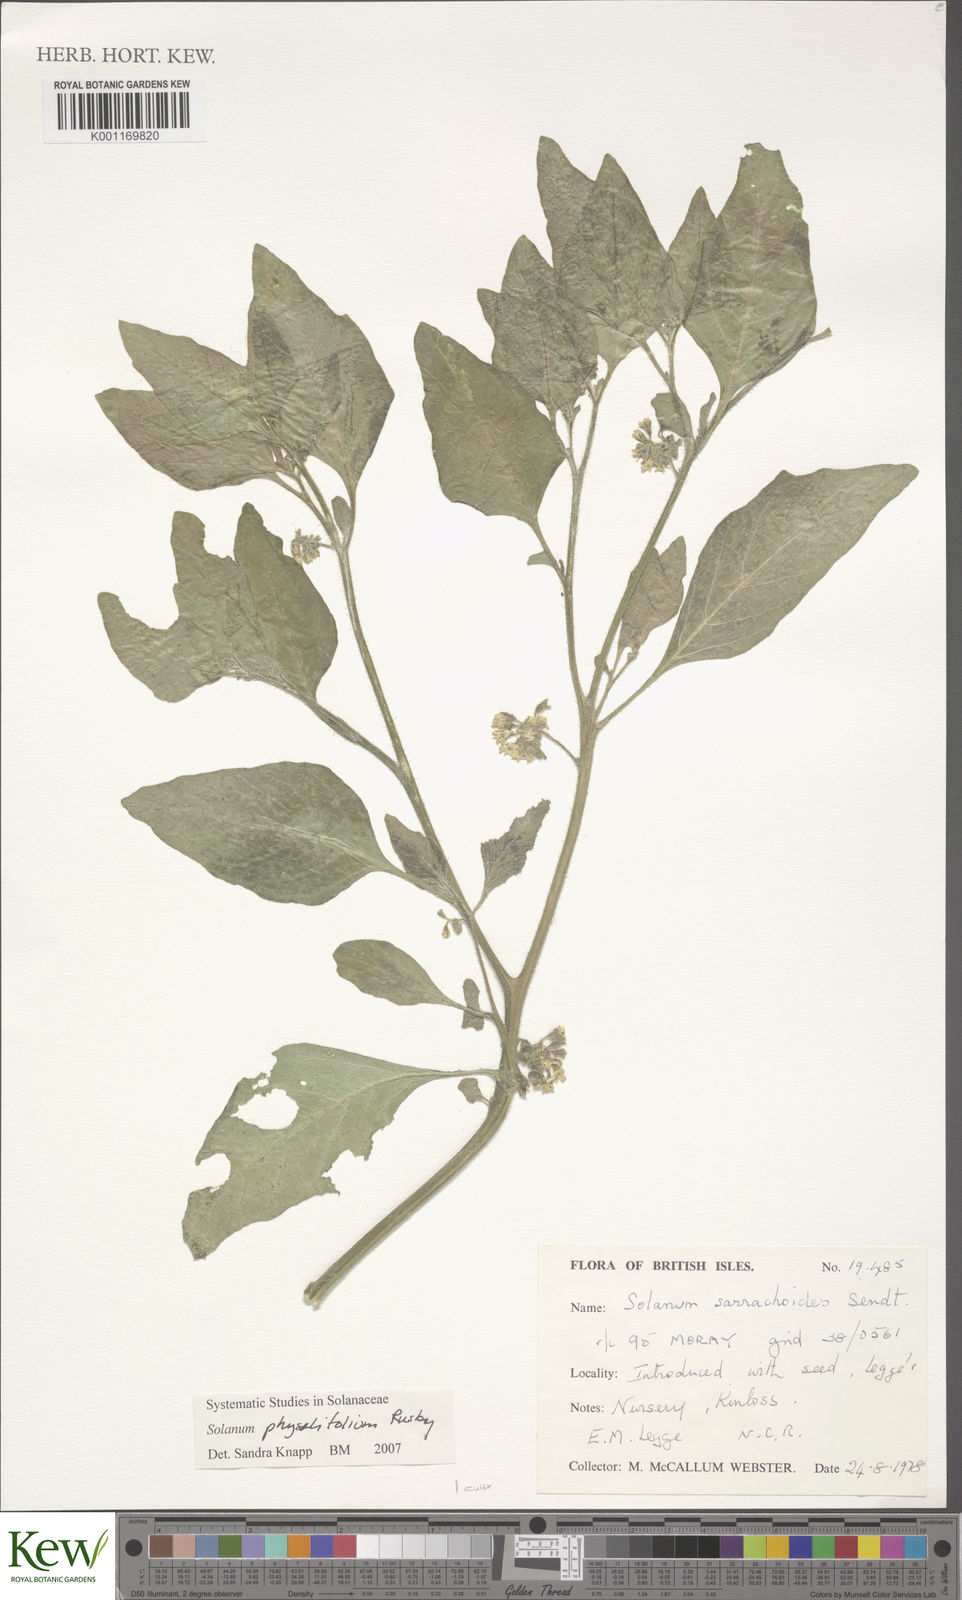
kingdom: Plantae
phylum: Tracheophyta
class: Magnoliopsida
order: Solanales
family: Solanaceae
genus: Solanum
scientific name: Solanum physalifolium
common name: Green nightshade
